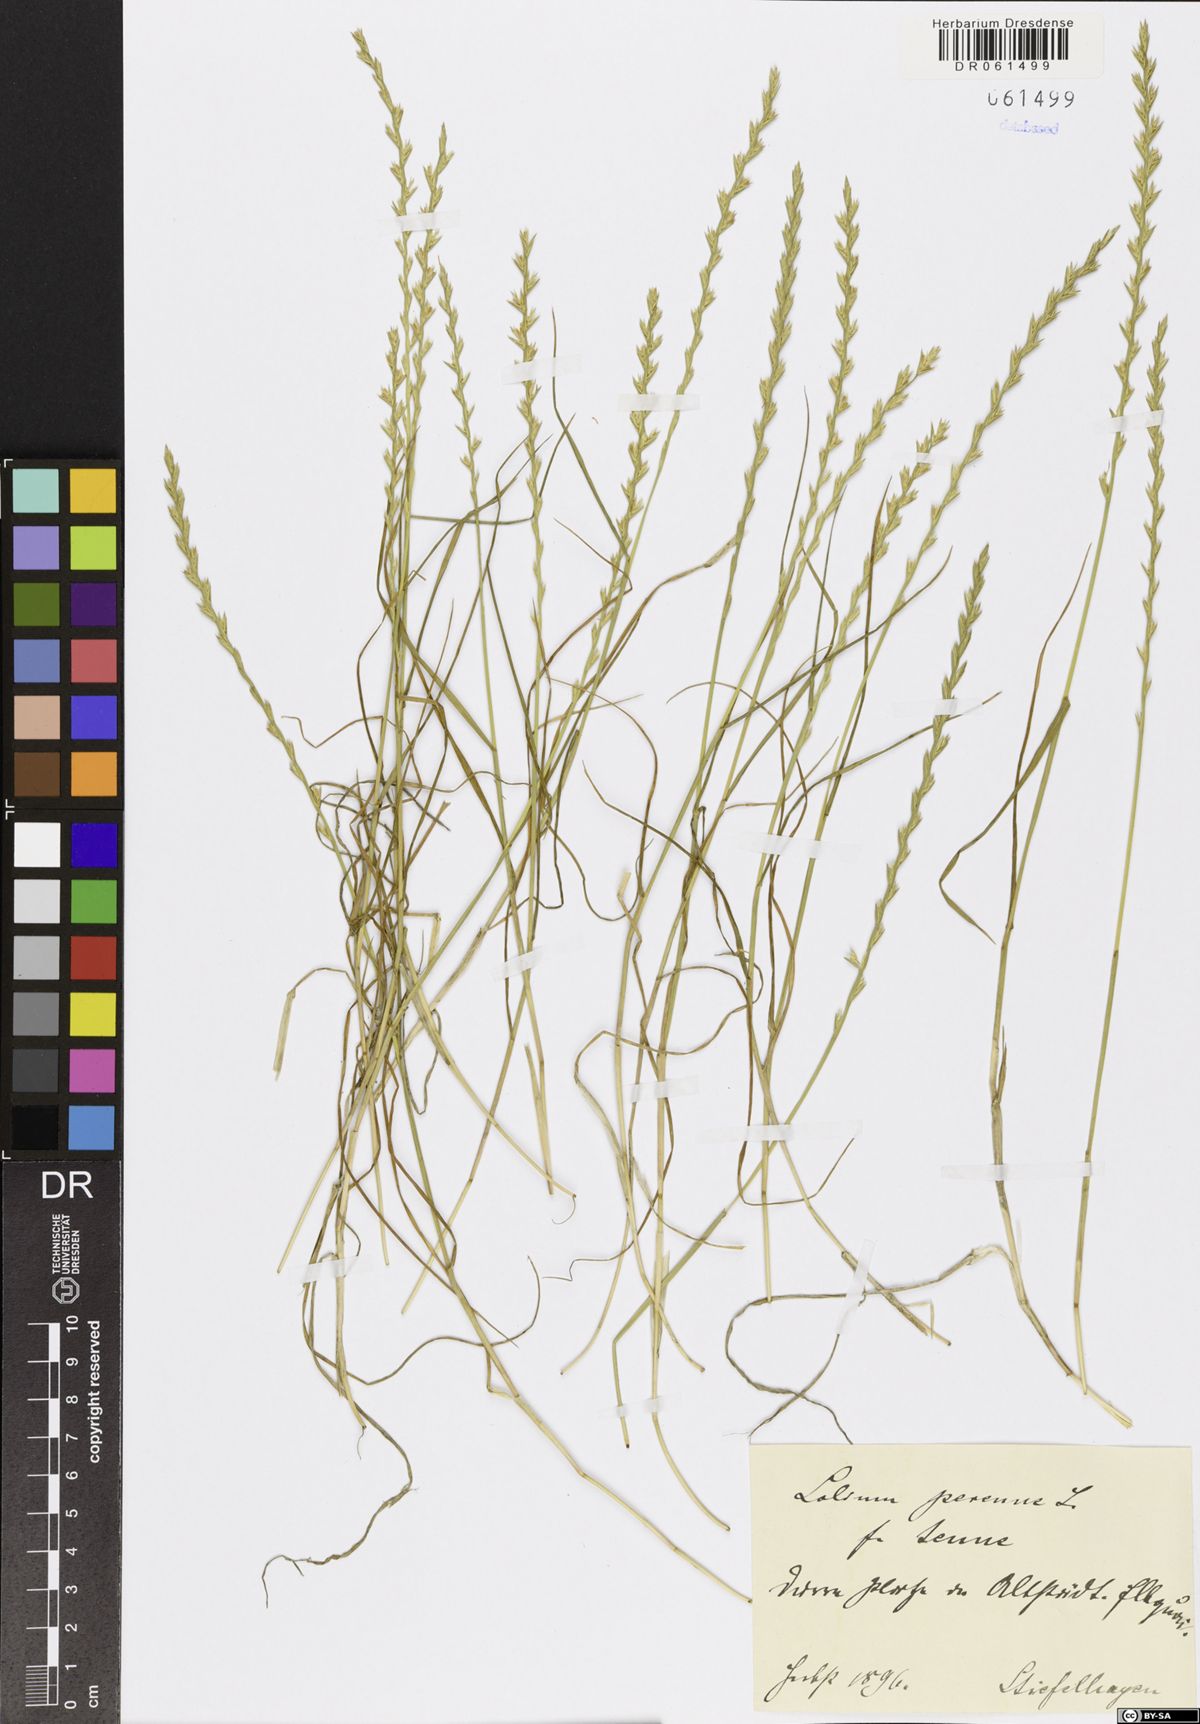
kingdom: Plantae
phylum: Tracheophyta
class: Liliopsida
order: Poales
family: Poaceae
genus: Lolium
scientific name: Lolium perenne
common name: Perennial ryegrass
